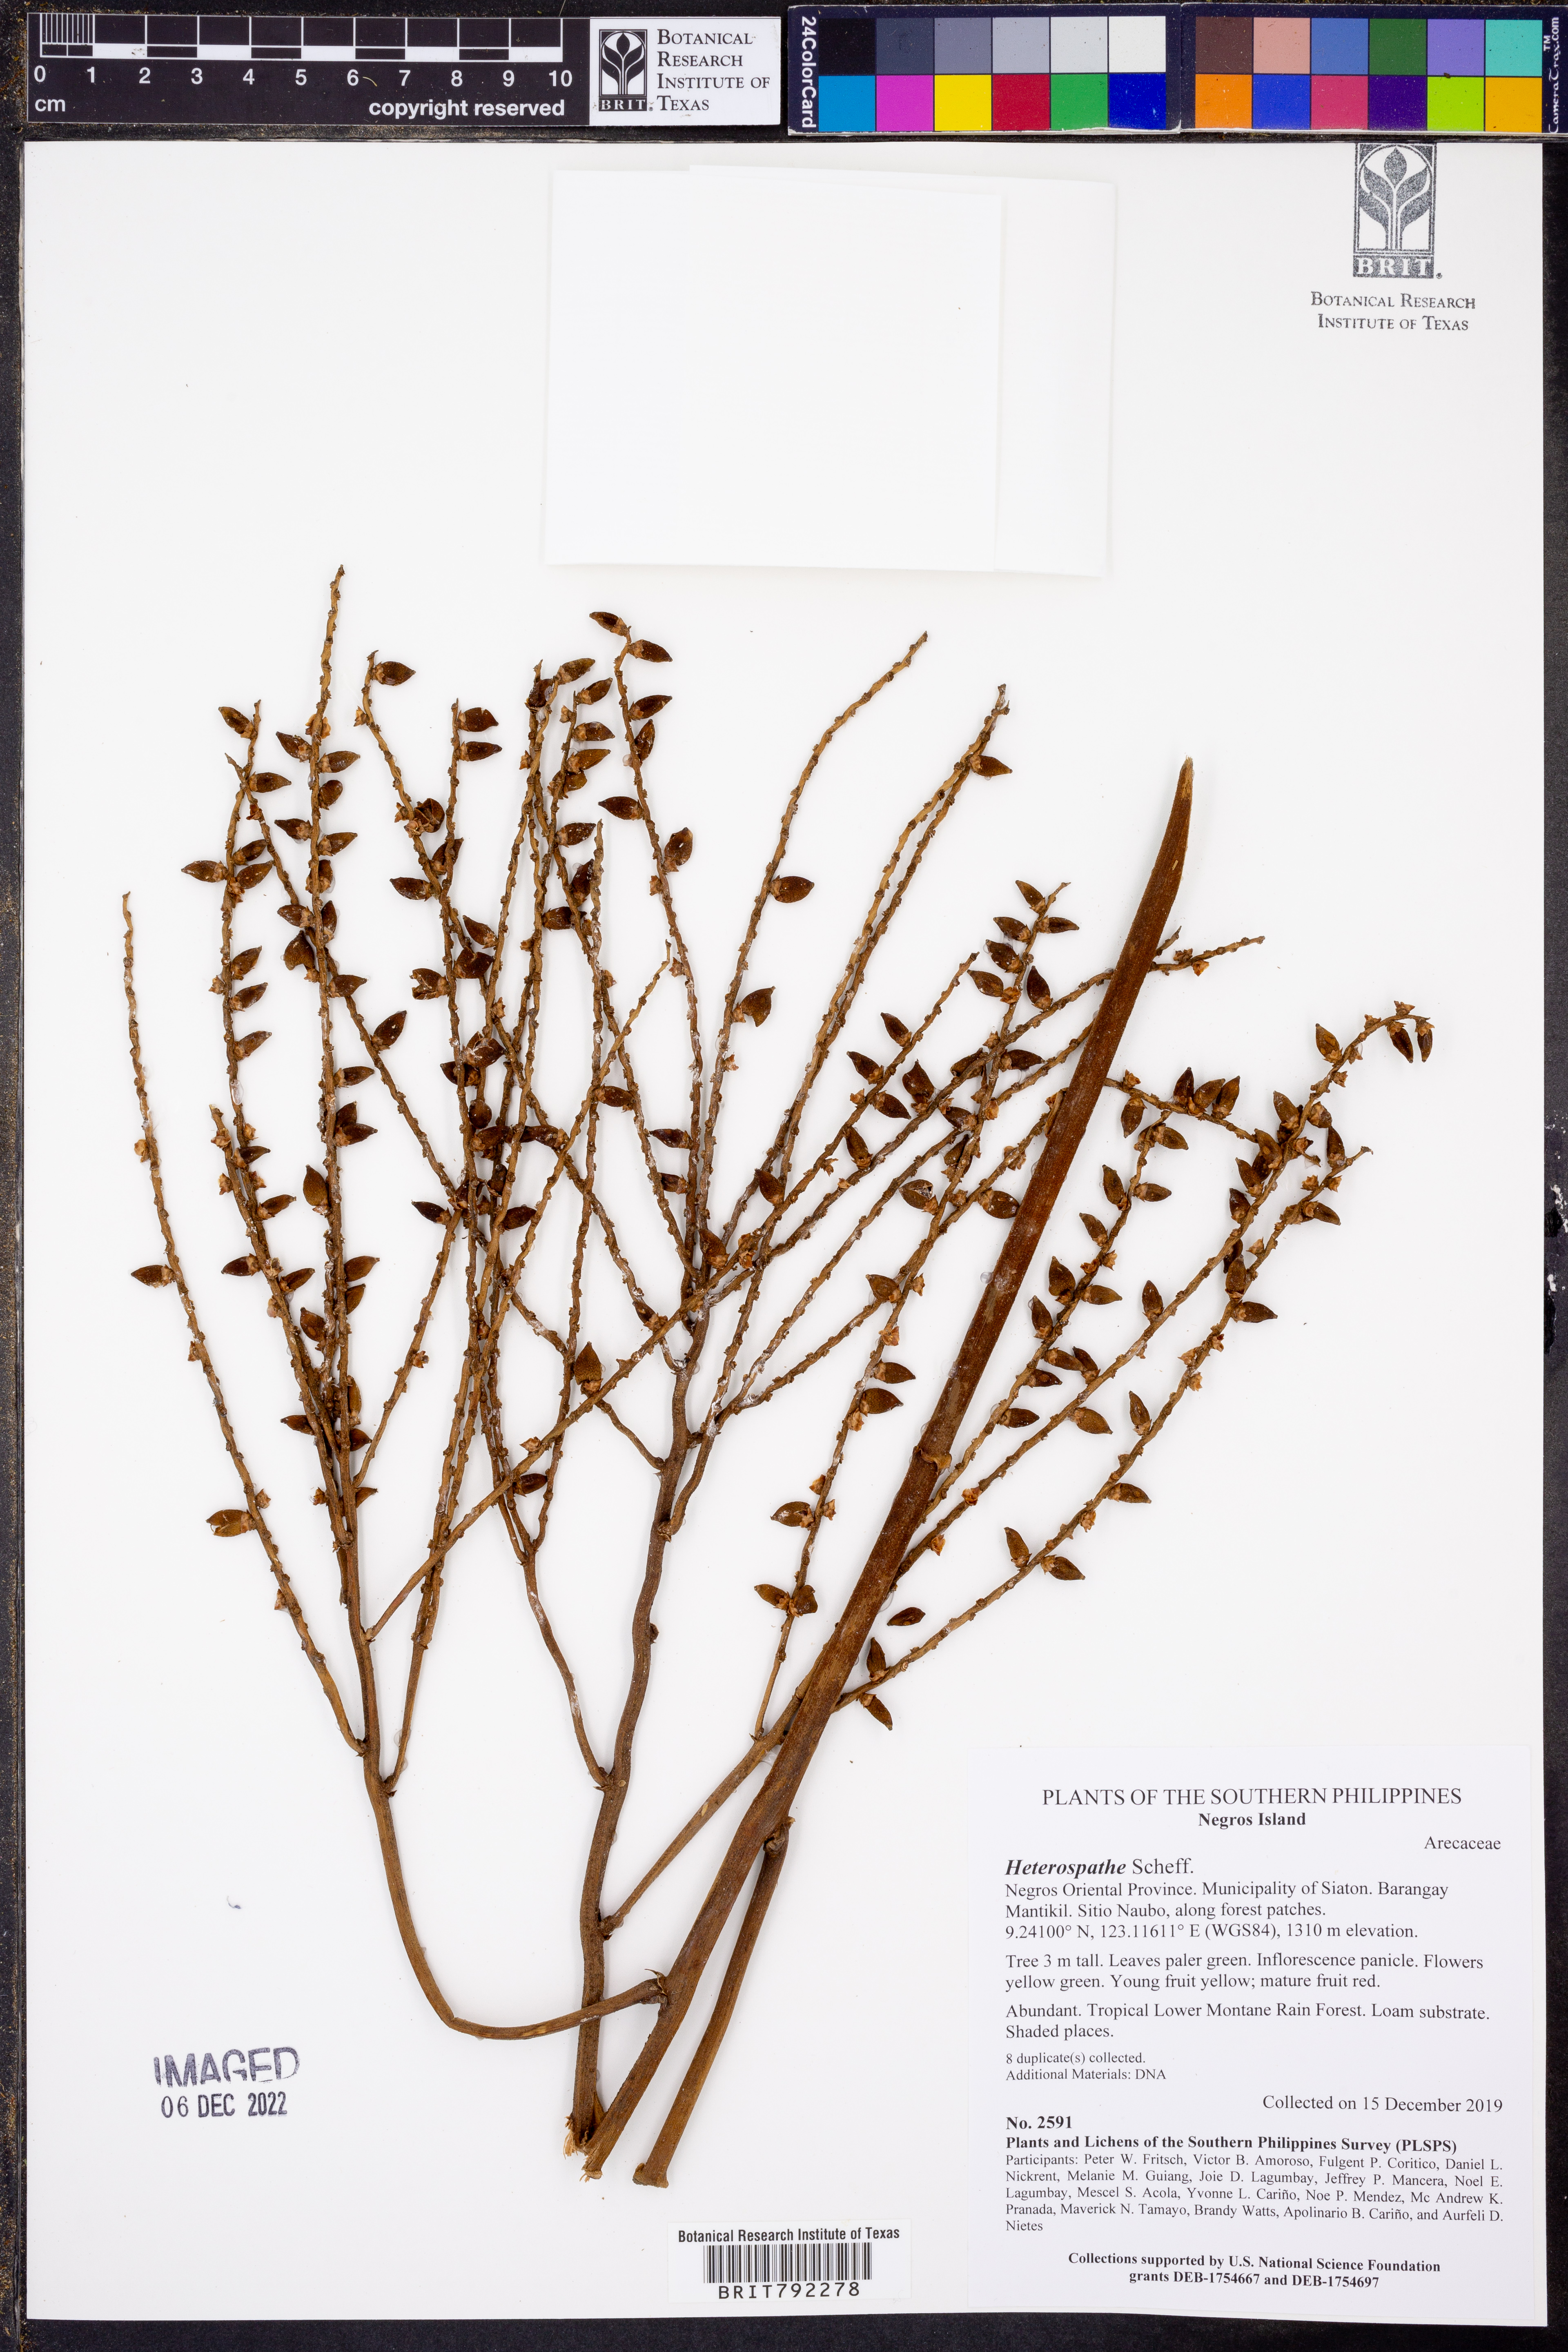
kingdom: Plantae
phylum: Tracheophyta
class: Liliopsida
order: Arecales
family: Arecaceae
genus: Heterospathe
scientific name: Heterospathe
